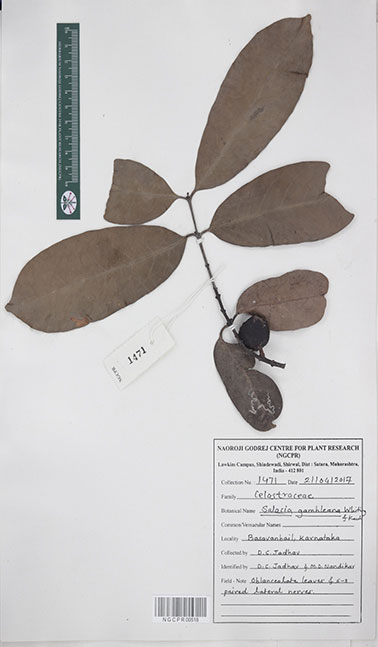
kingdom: Plantae
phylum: Tracheophyta
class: Magnoliopsida
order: Celastrales
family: Celastraceae
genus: Salacia
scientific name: Salacia gambleana
